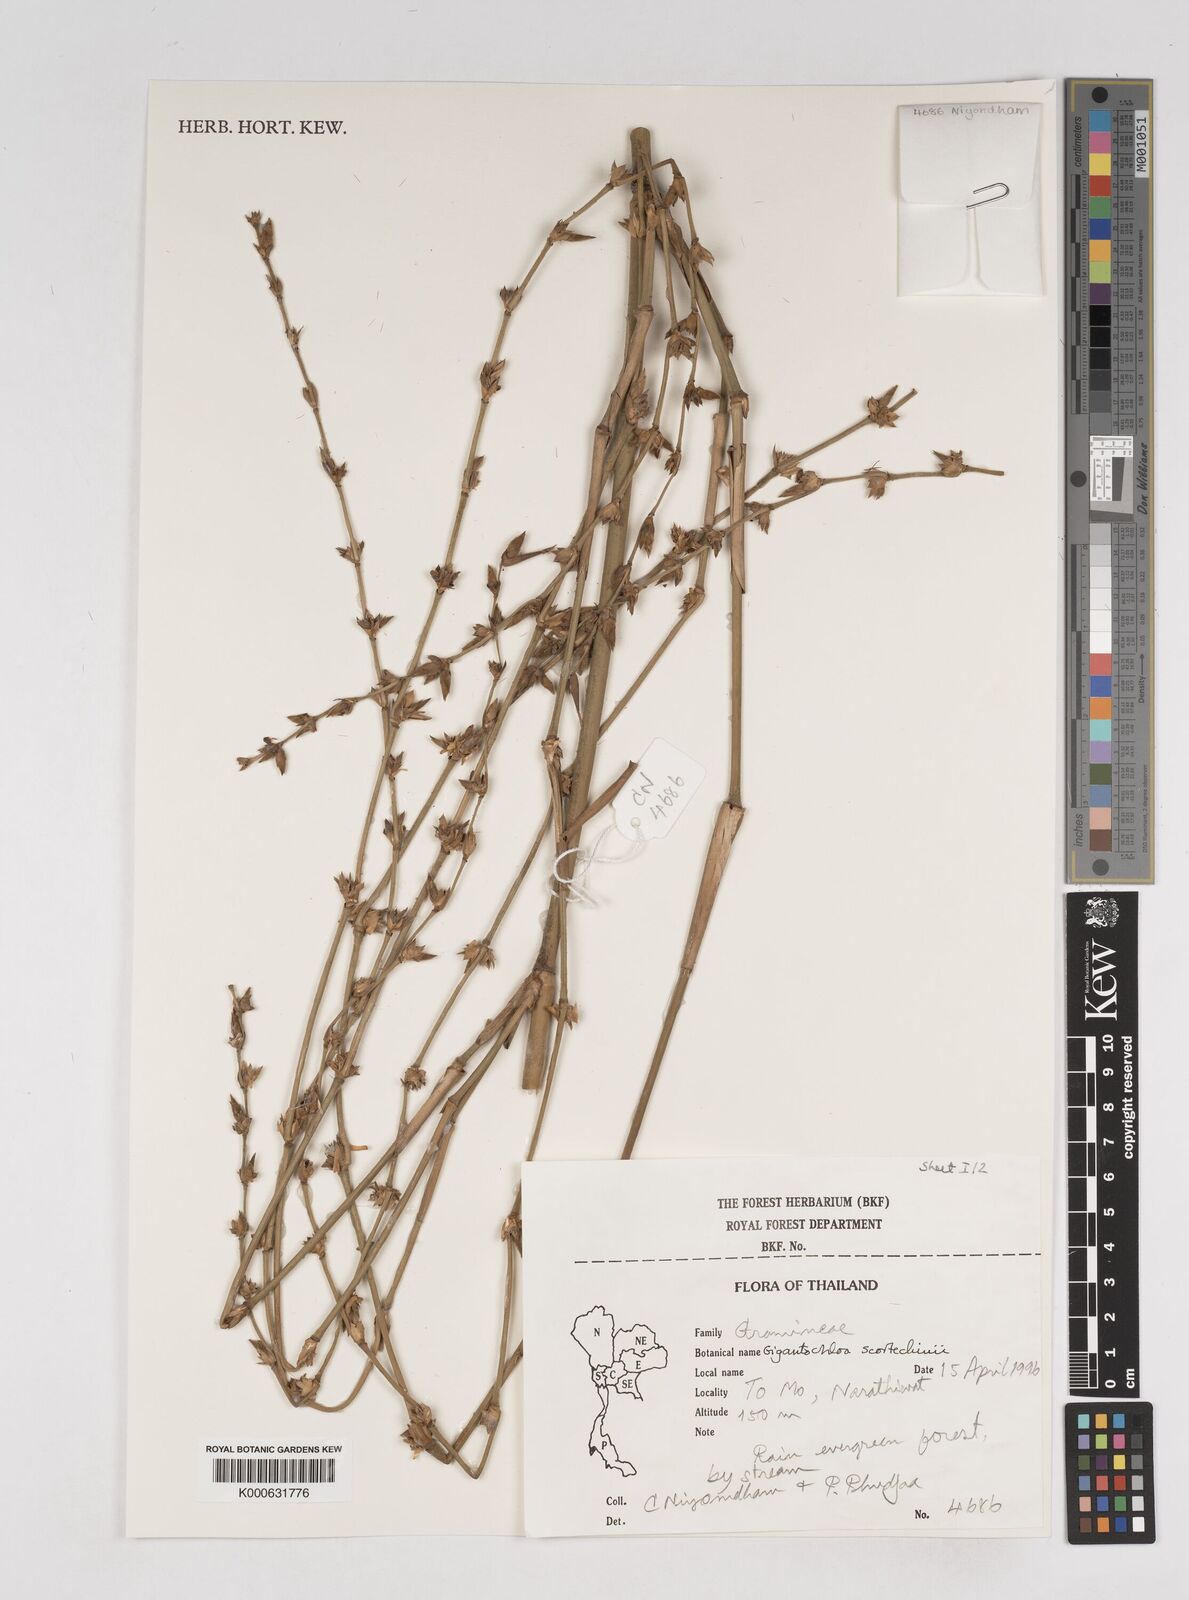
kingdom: Plantae
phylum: Tracheophyta
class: Liliopsida
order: Poales
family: Poaceae
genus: Gigantochloa
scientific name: Gigantochloa scortechinii
